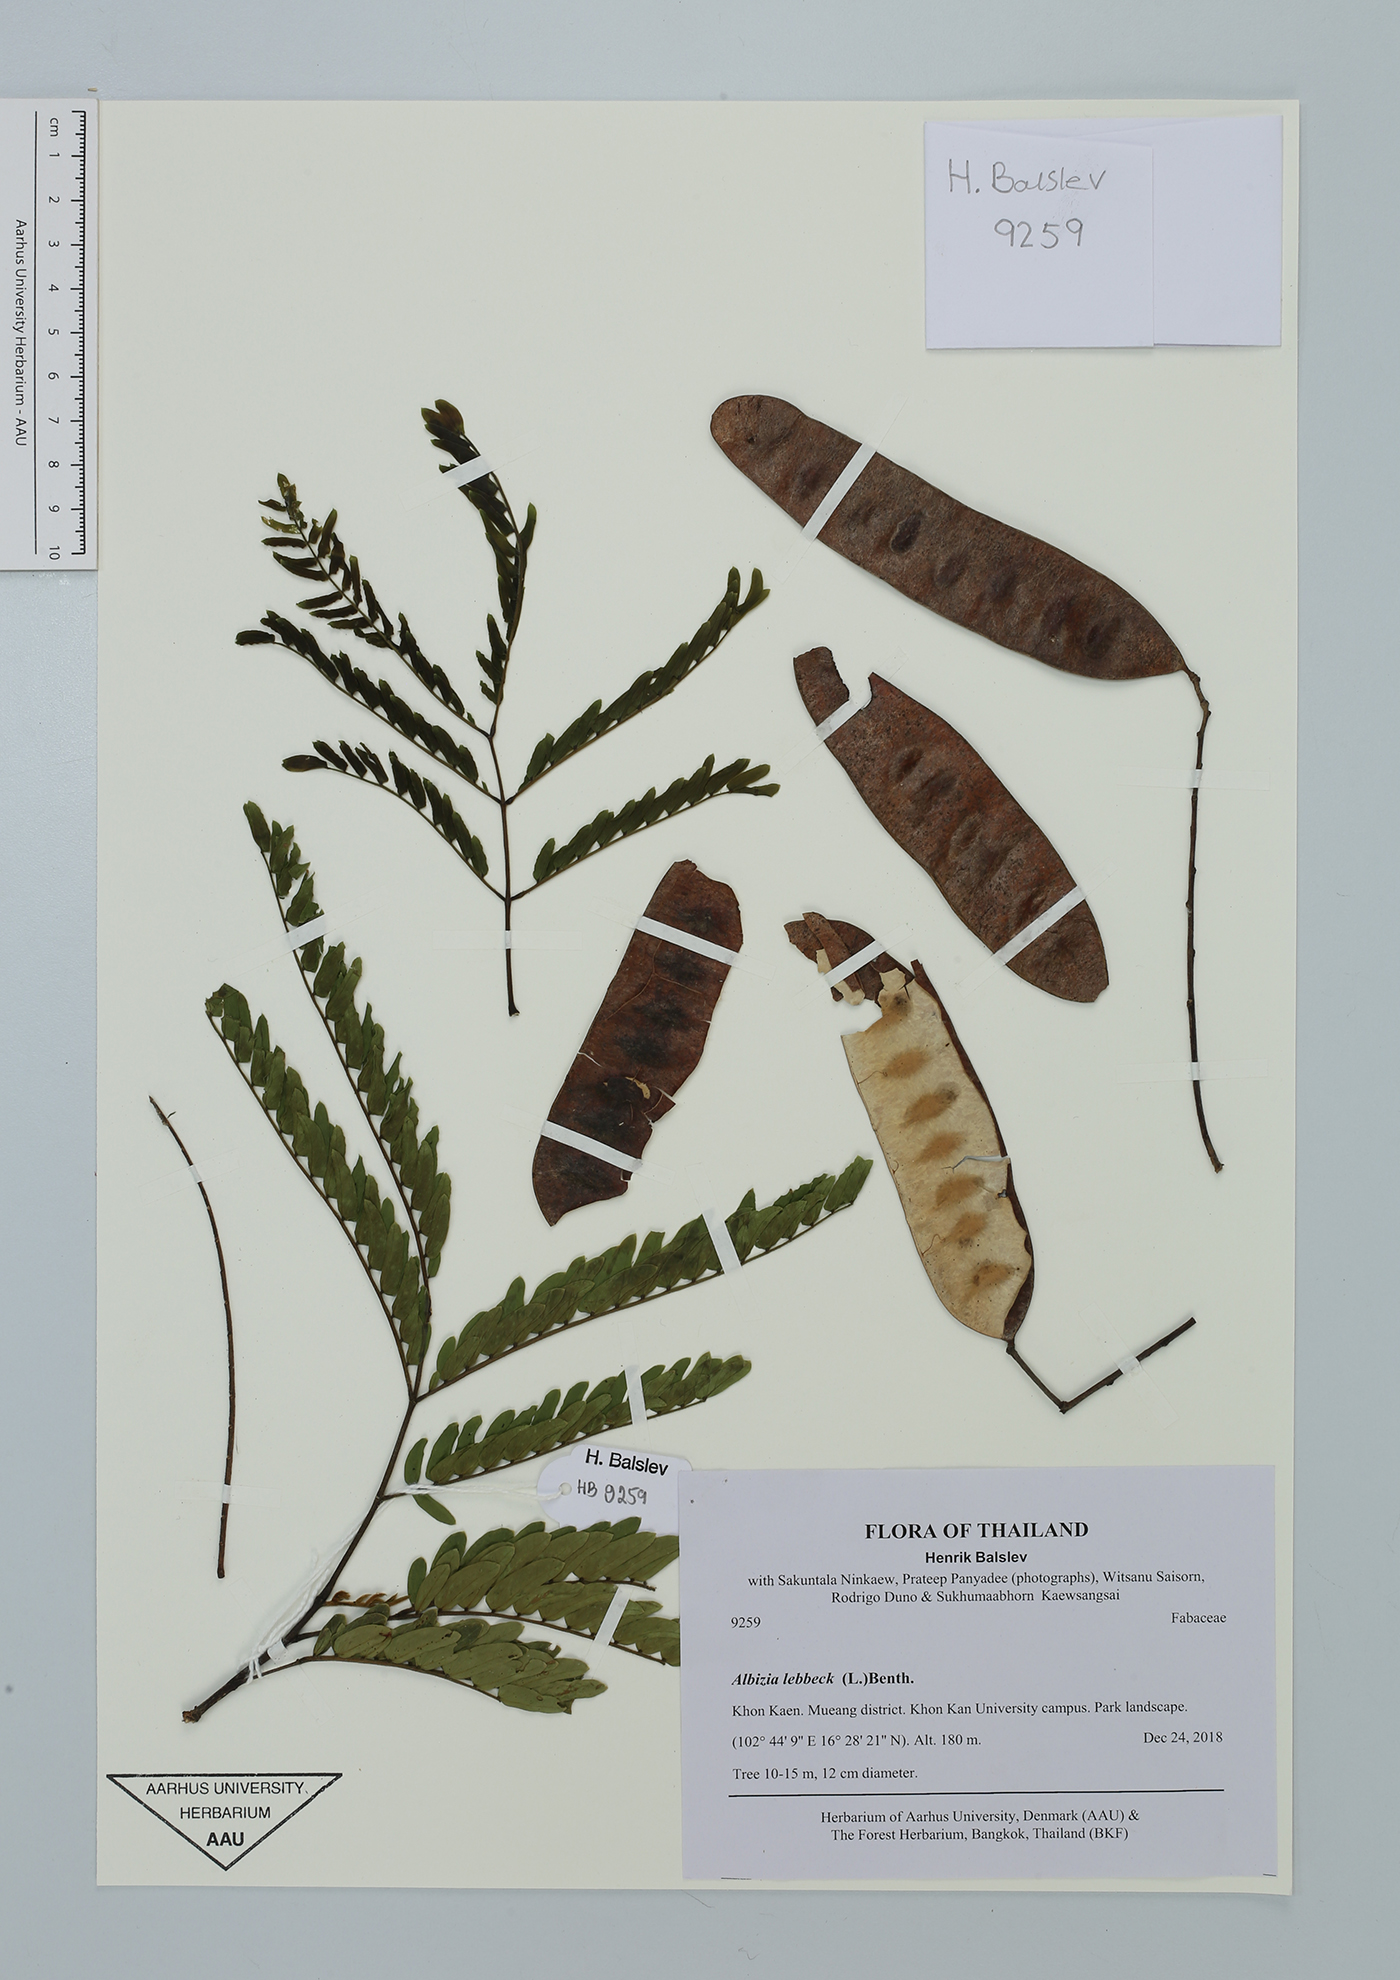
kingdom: Plantae
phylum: Tracheophyta
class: Magnoliopsida
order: Fabales
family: Fabaceae
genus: Albizia
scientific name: Albizia lebbeck
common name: Woman's tongue
